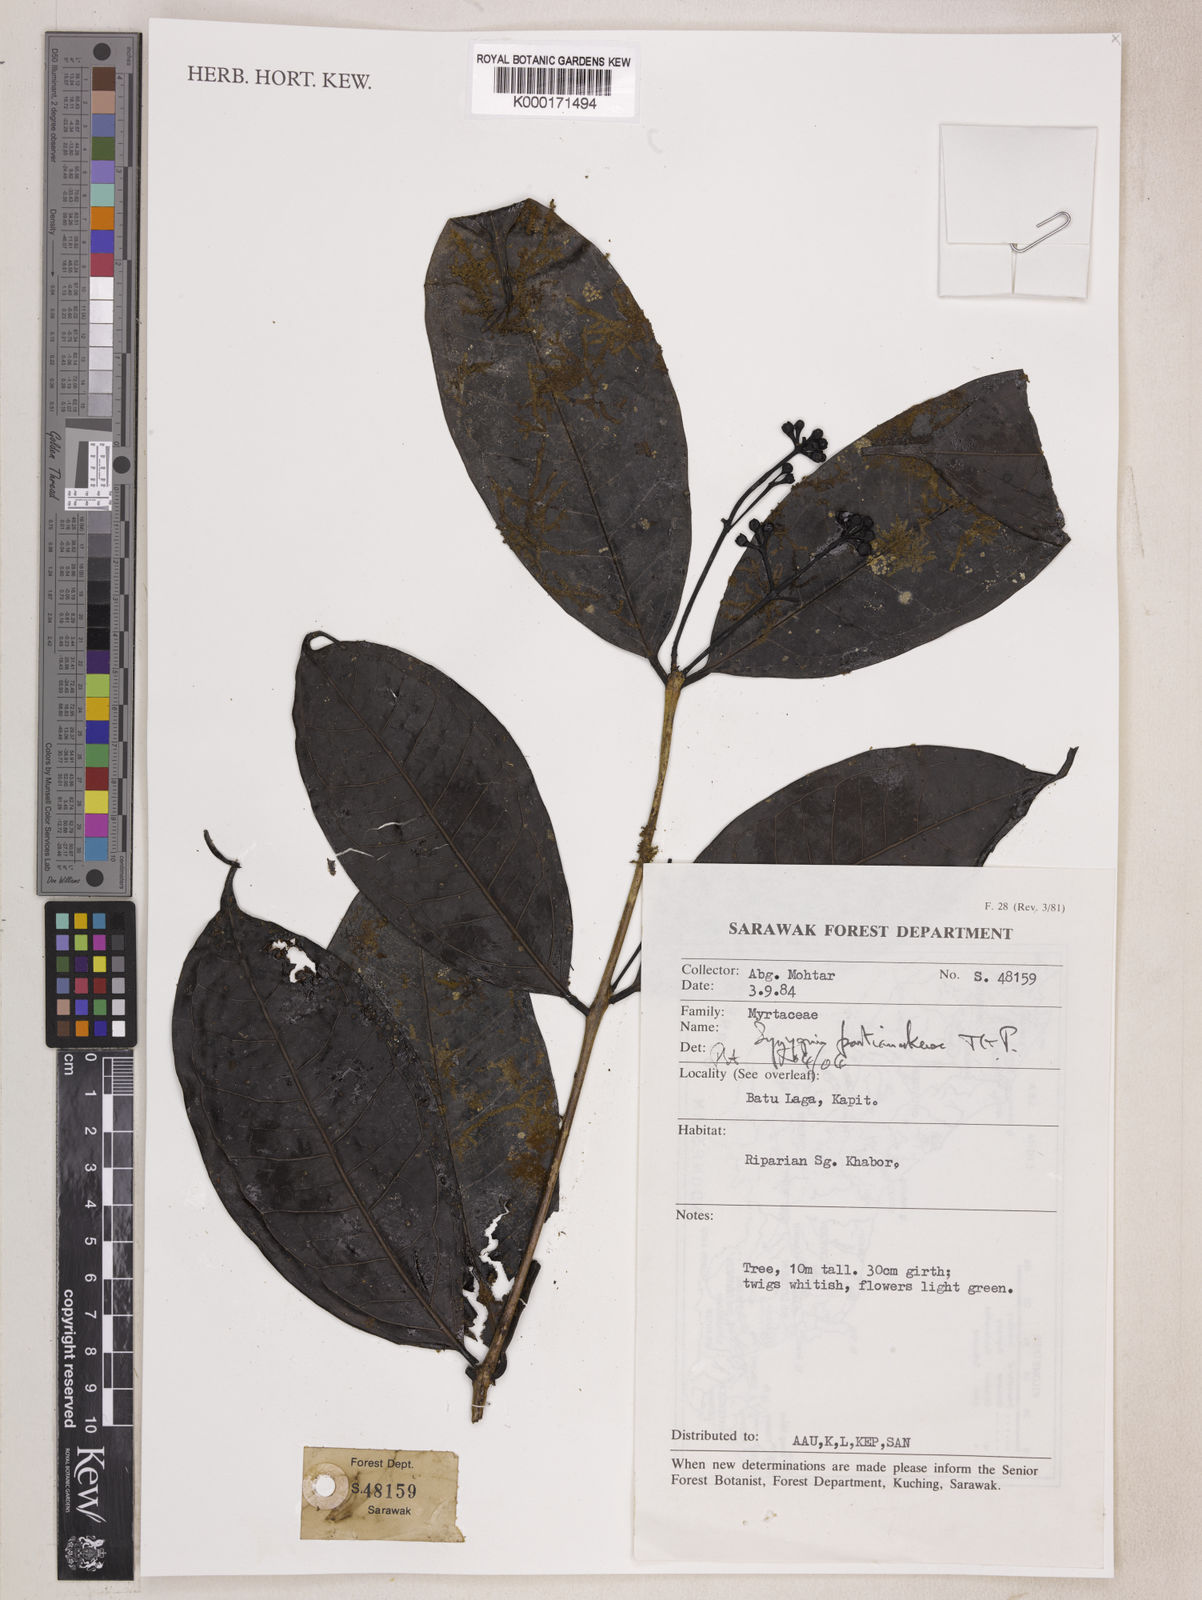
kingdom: Plantae
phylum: Tracheophyta
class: Magnoliopsida
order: Myrtales
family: Myrtaceae
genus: Syzygium
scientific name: Syzygium pontianakense
